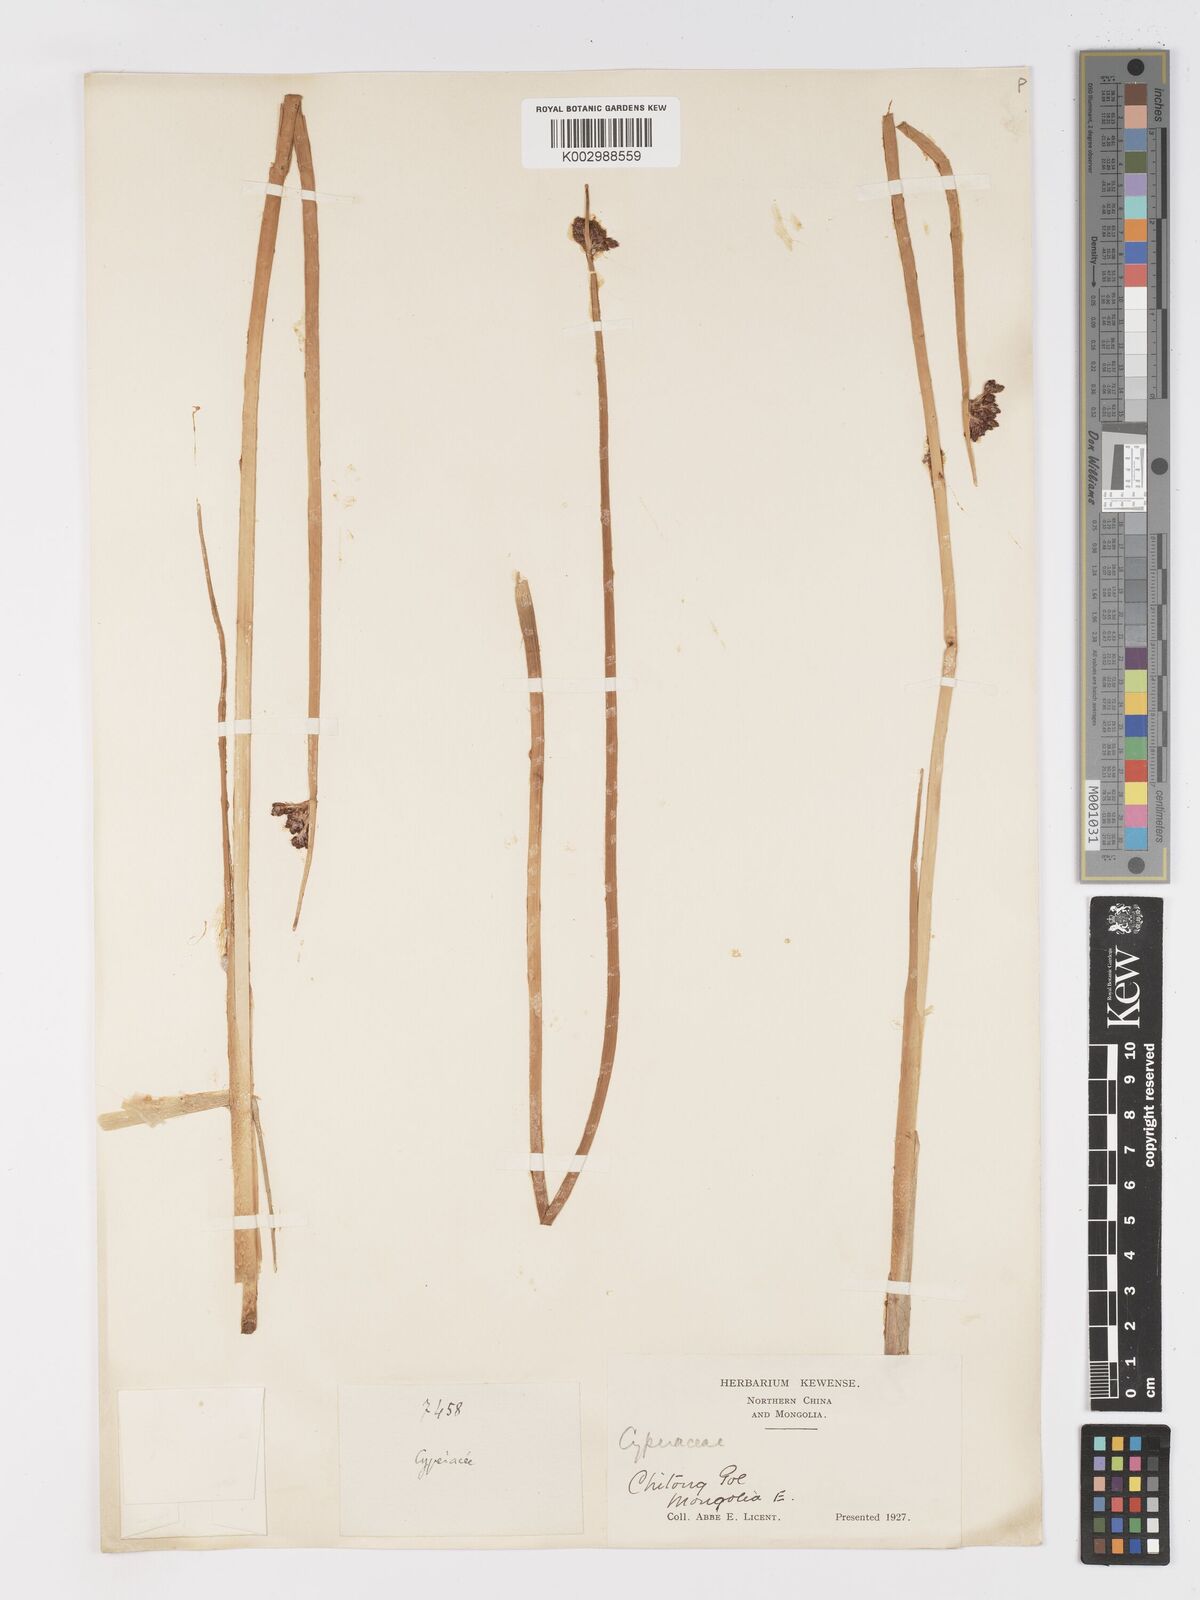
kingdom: Plantae
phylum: Tracheophyta
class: Liliopsida
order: Poales
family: Cyperaceae
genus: Schoenoplectus
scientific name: Schoenoplectus
